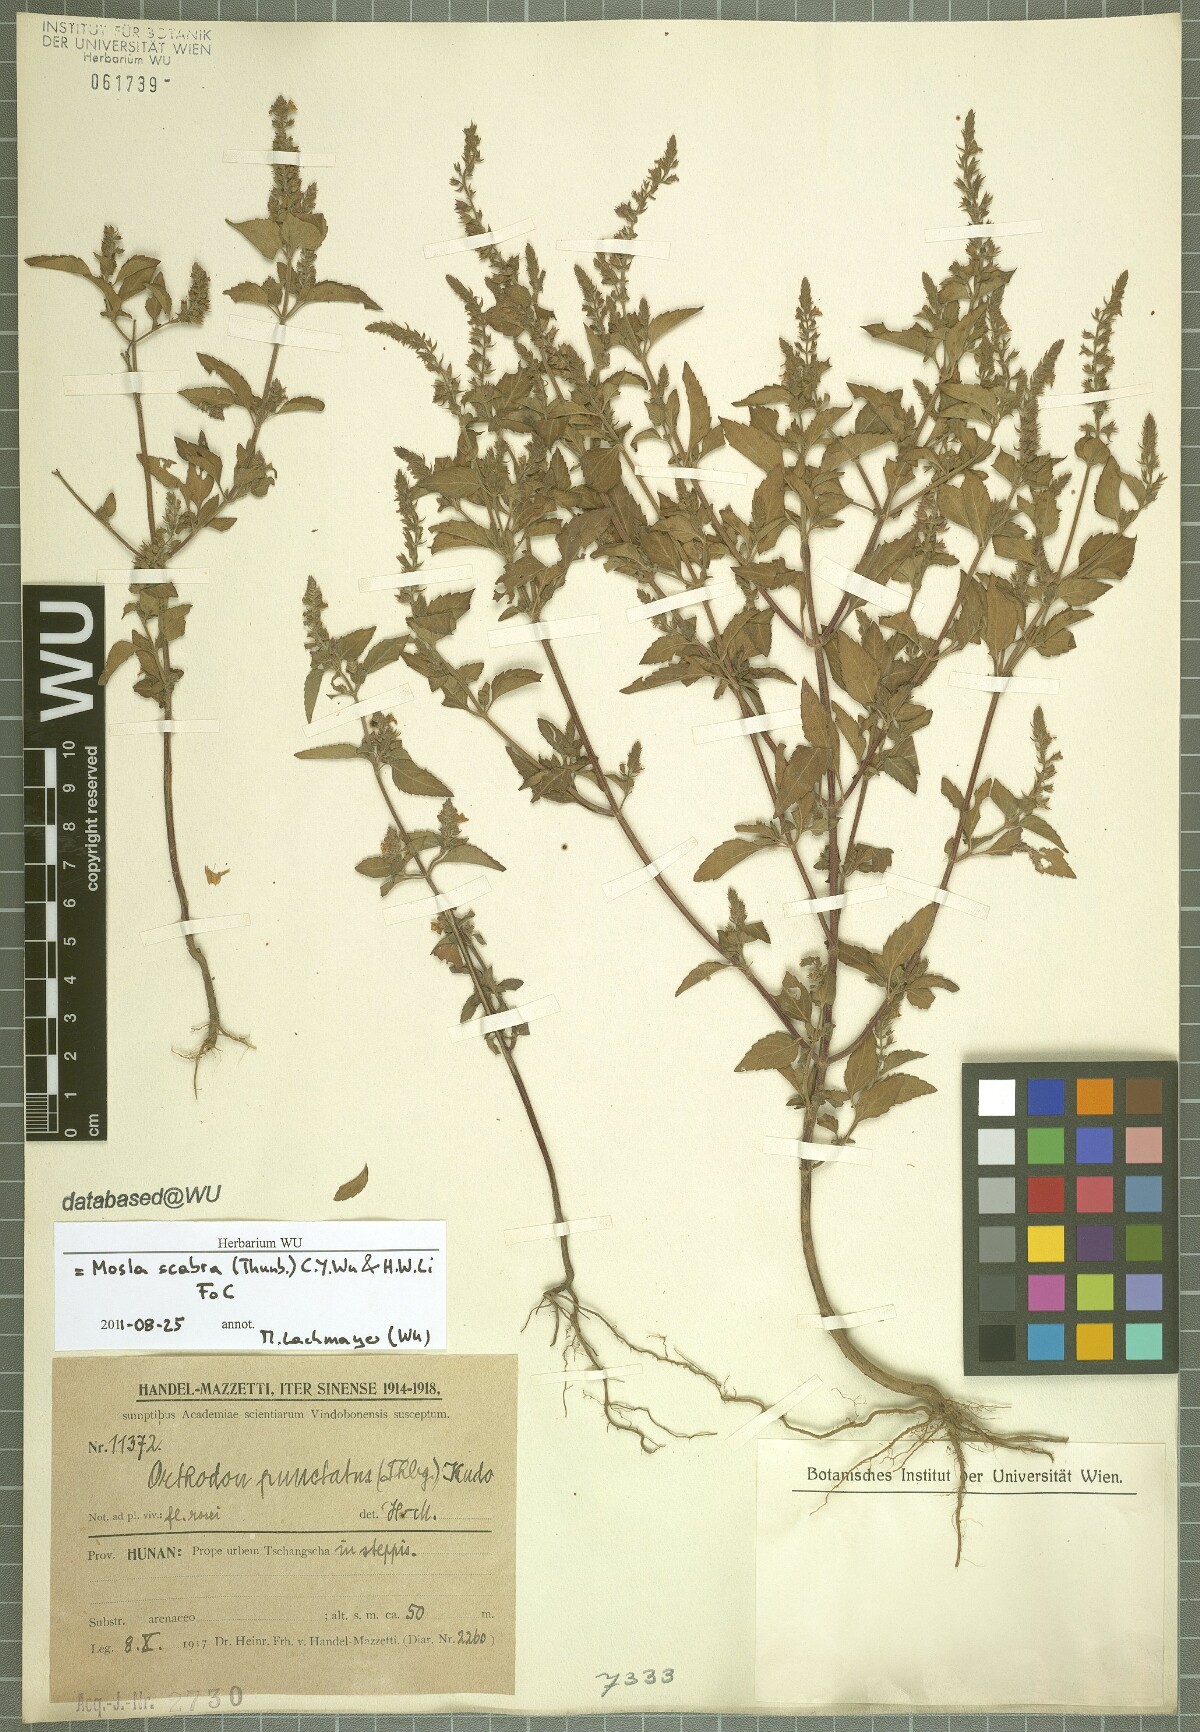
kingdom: Plantae
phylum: Tracheophyta
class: Magnoliopsida
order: Lamiales
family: Lamiaceae
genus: Mosla
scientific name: Mosla scabra
